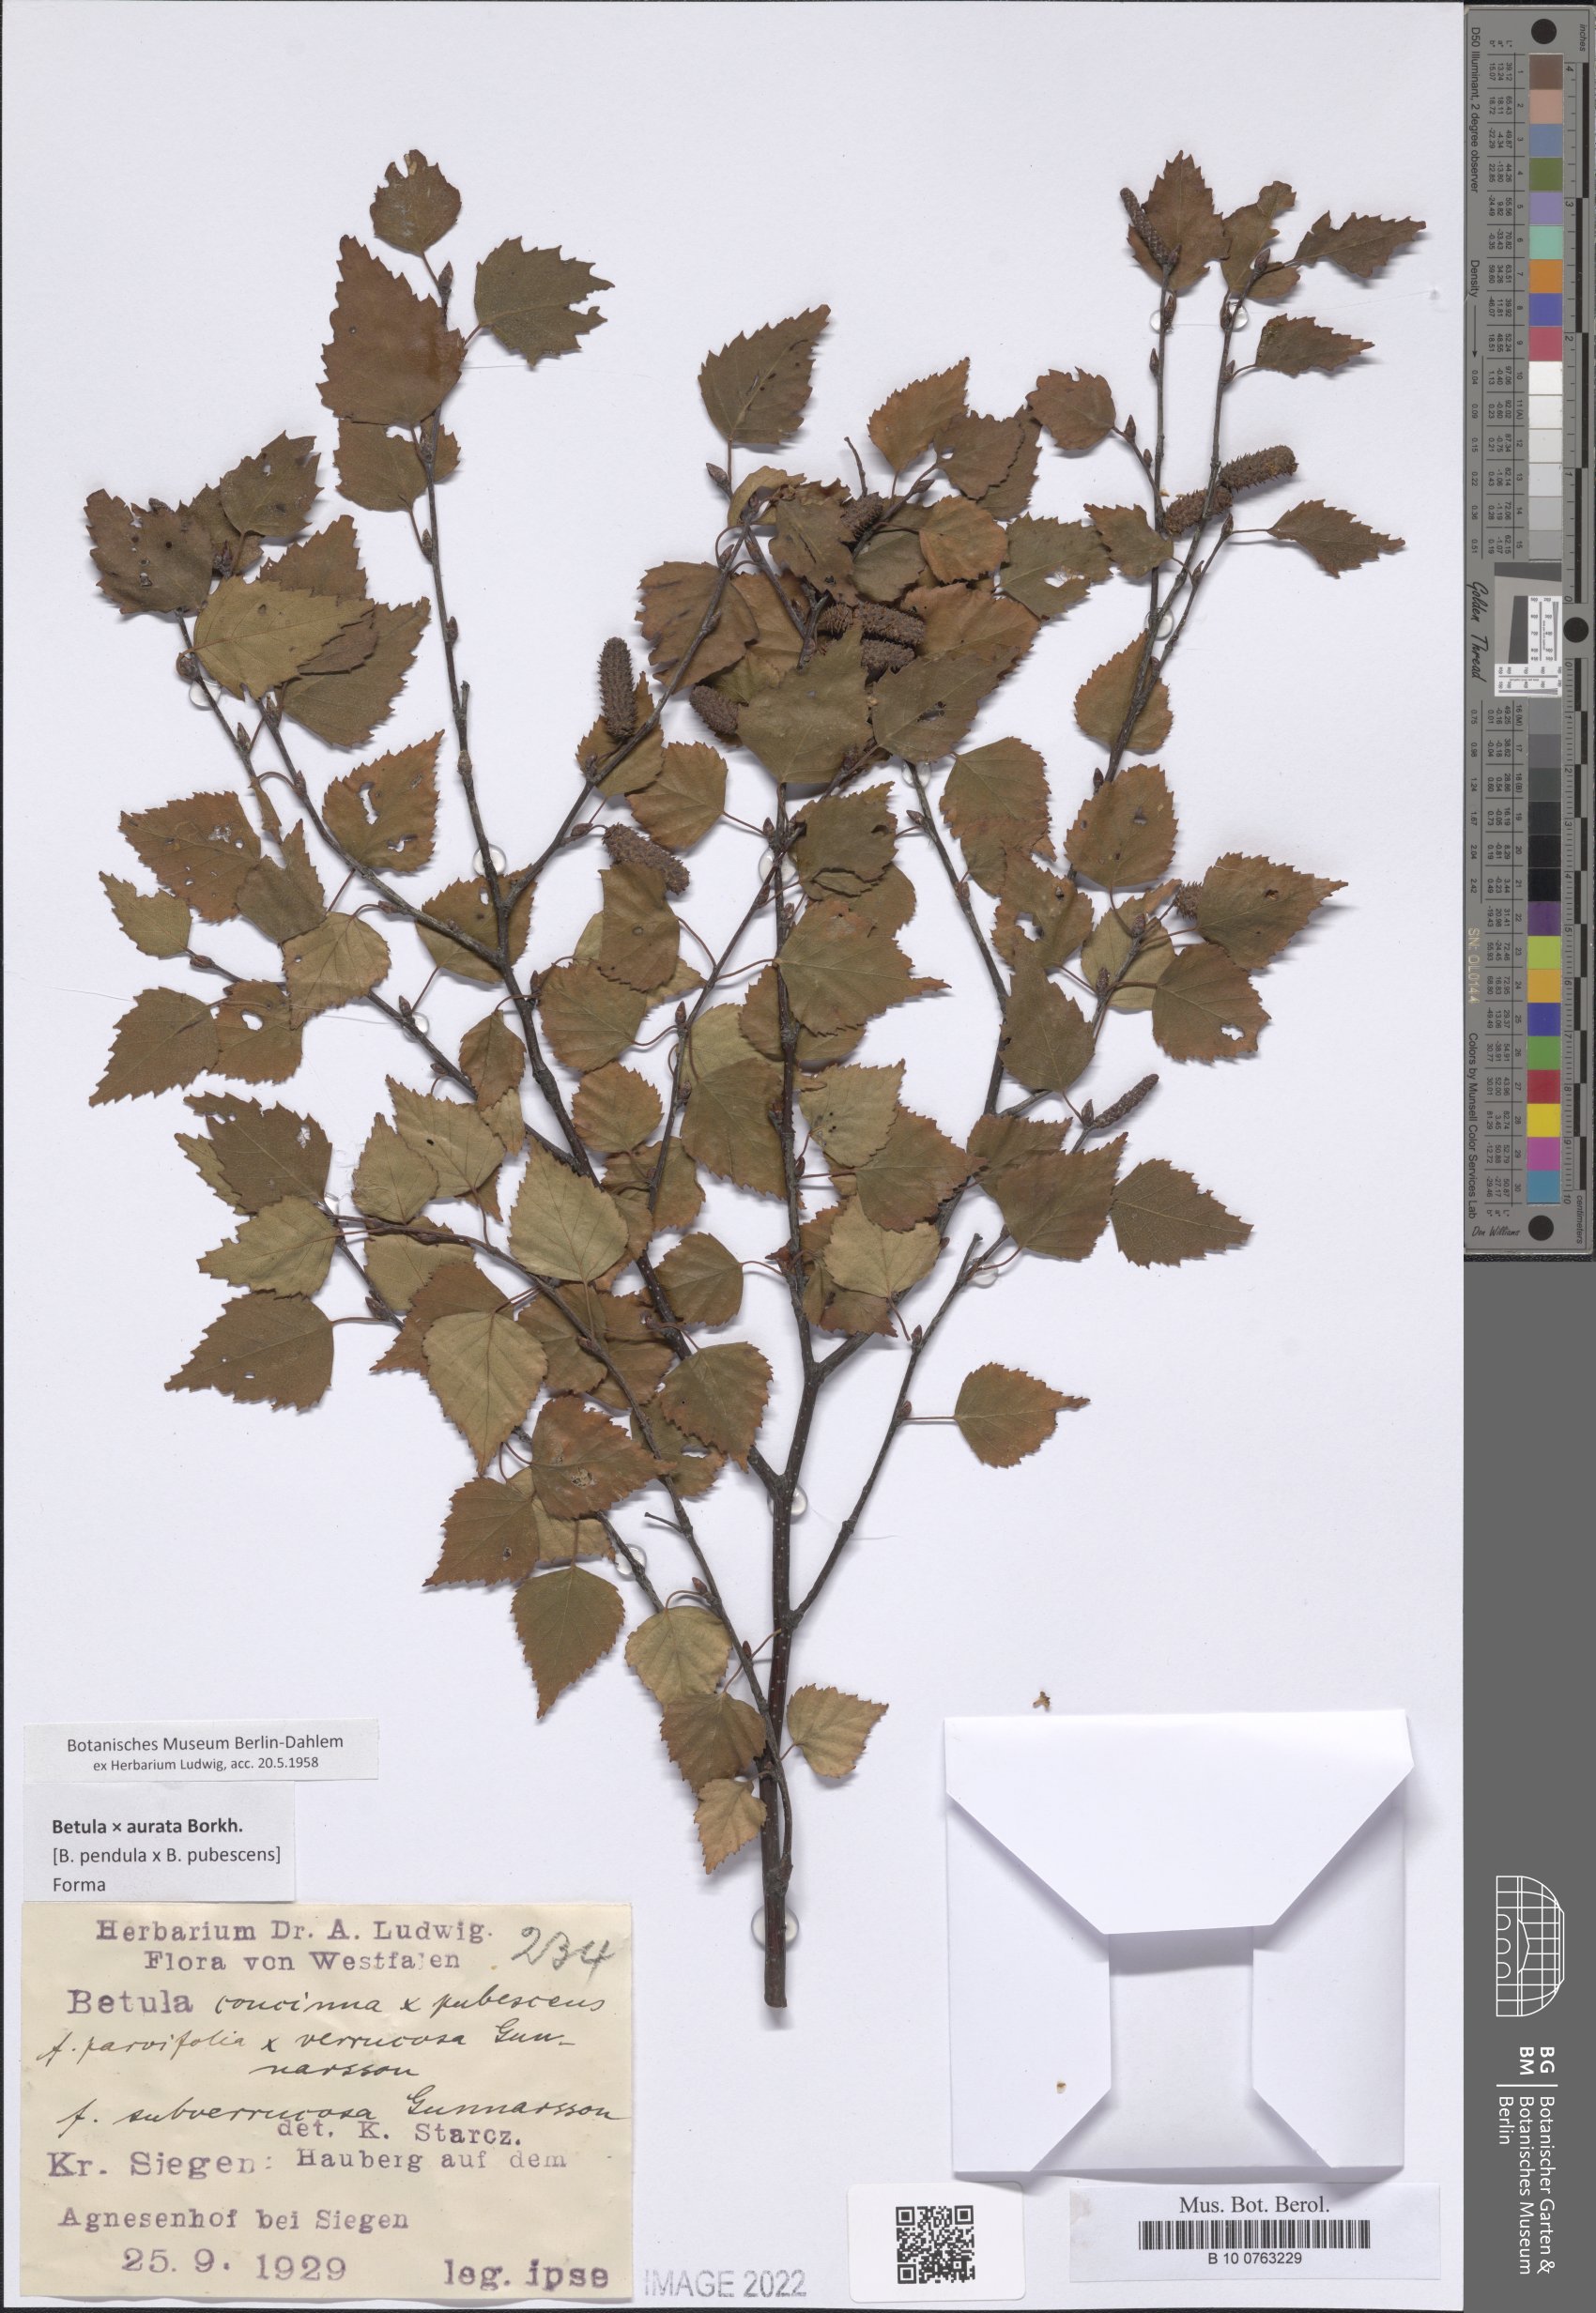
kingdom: Plantae
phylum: Tracheophyta
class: Magnoliopsida
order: Asterales
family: Asteraceae
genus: Munnozia
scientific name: Munnozia
